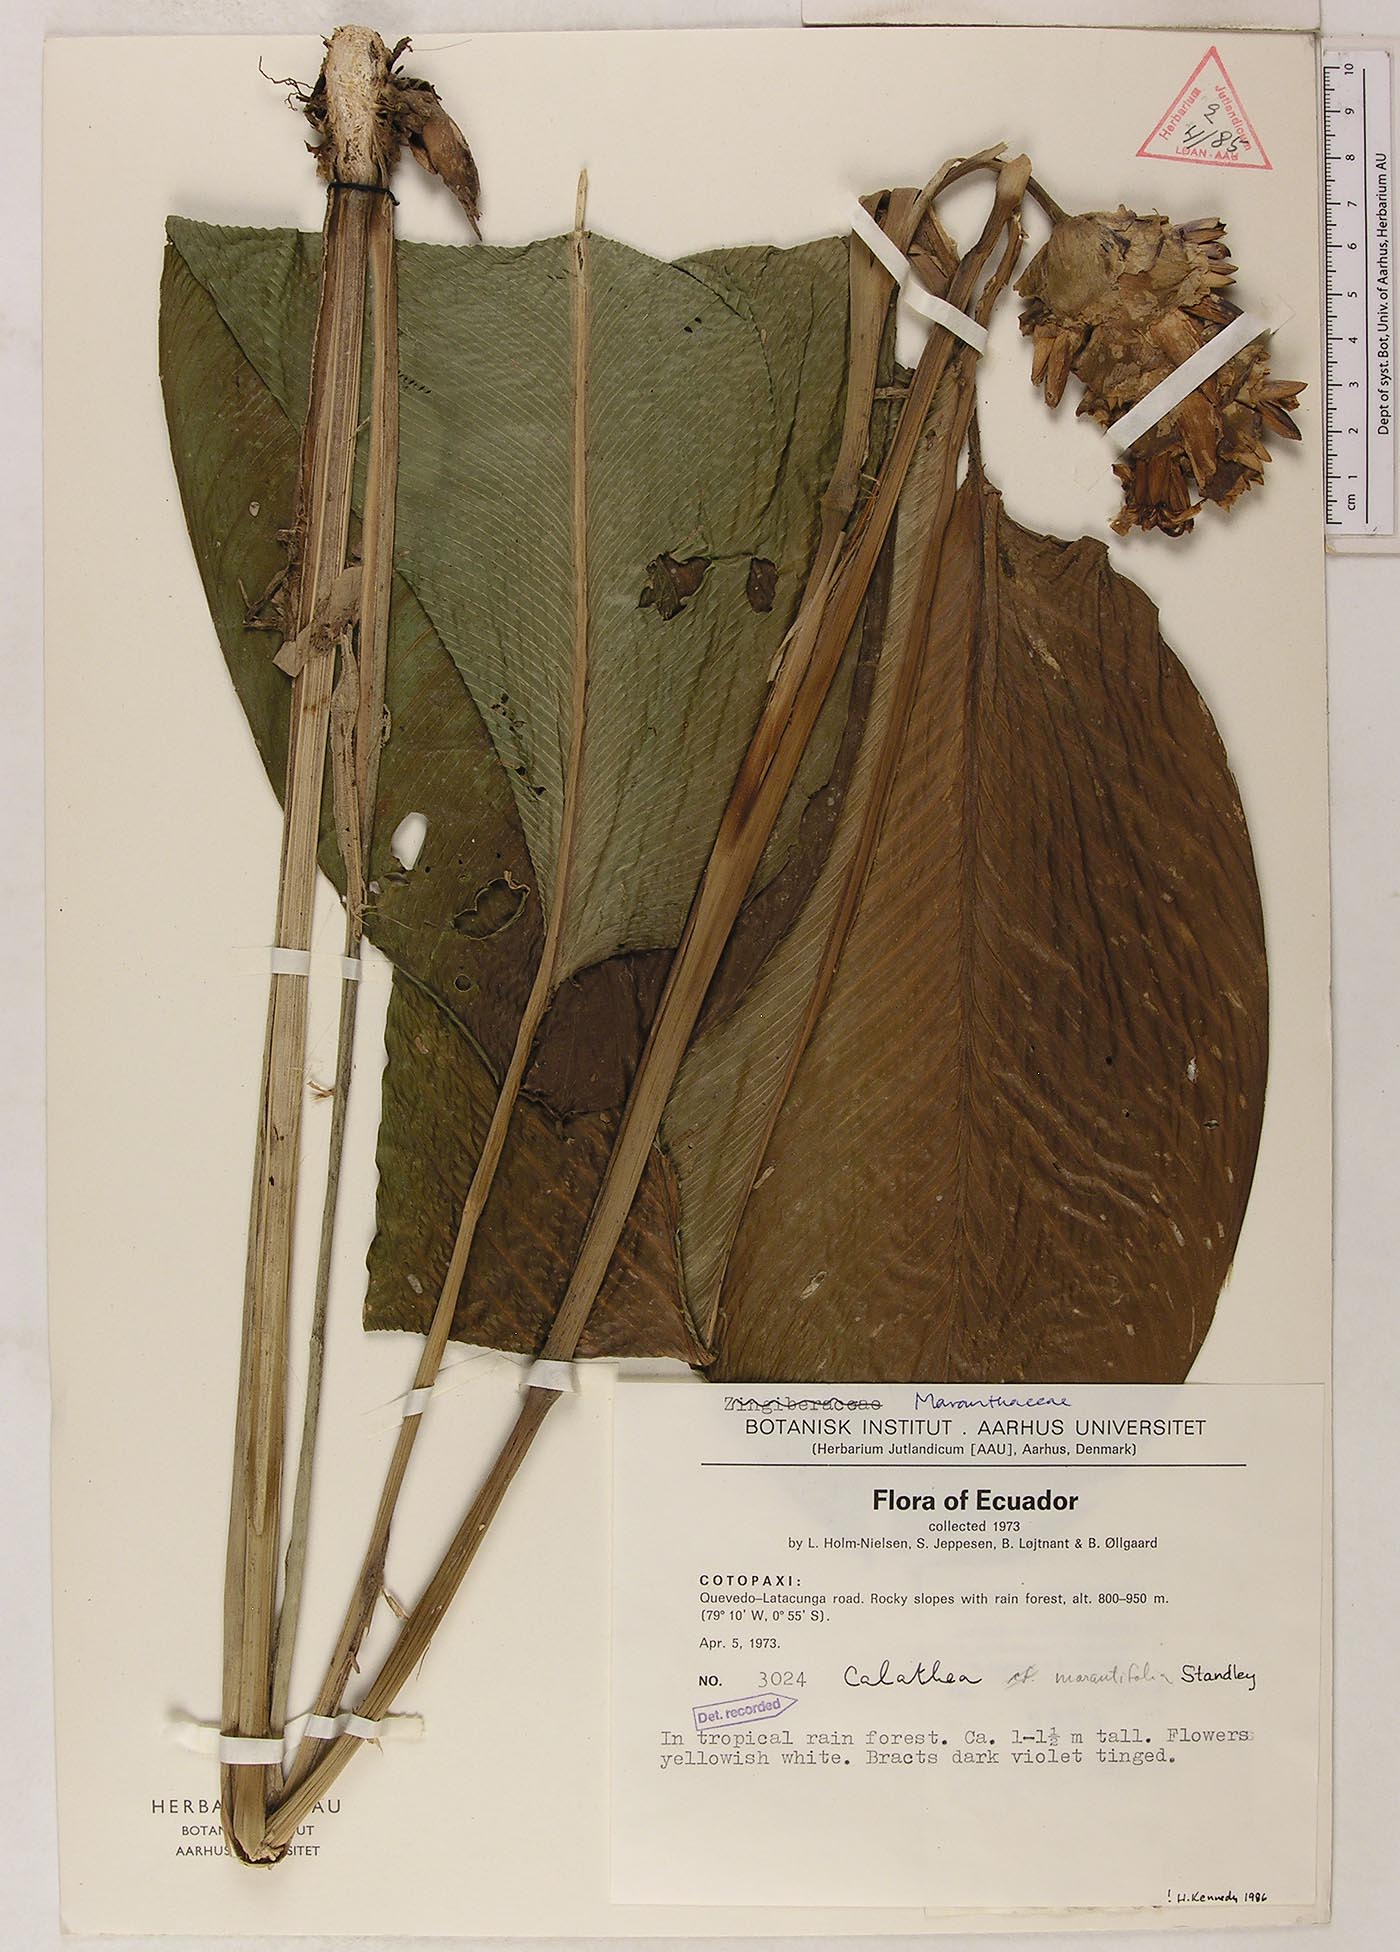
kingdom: Plantae
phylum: Tracheophyta
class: Liliopsida
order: Zingiberales
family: Marantaceae
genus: Goeppertia
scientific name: Goeppertia marantifolia
